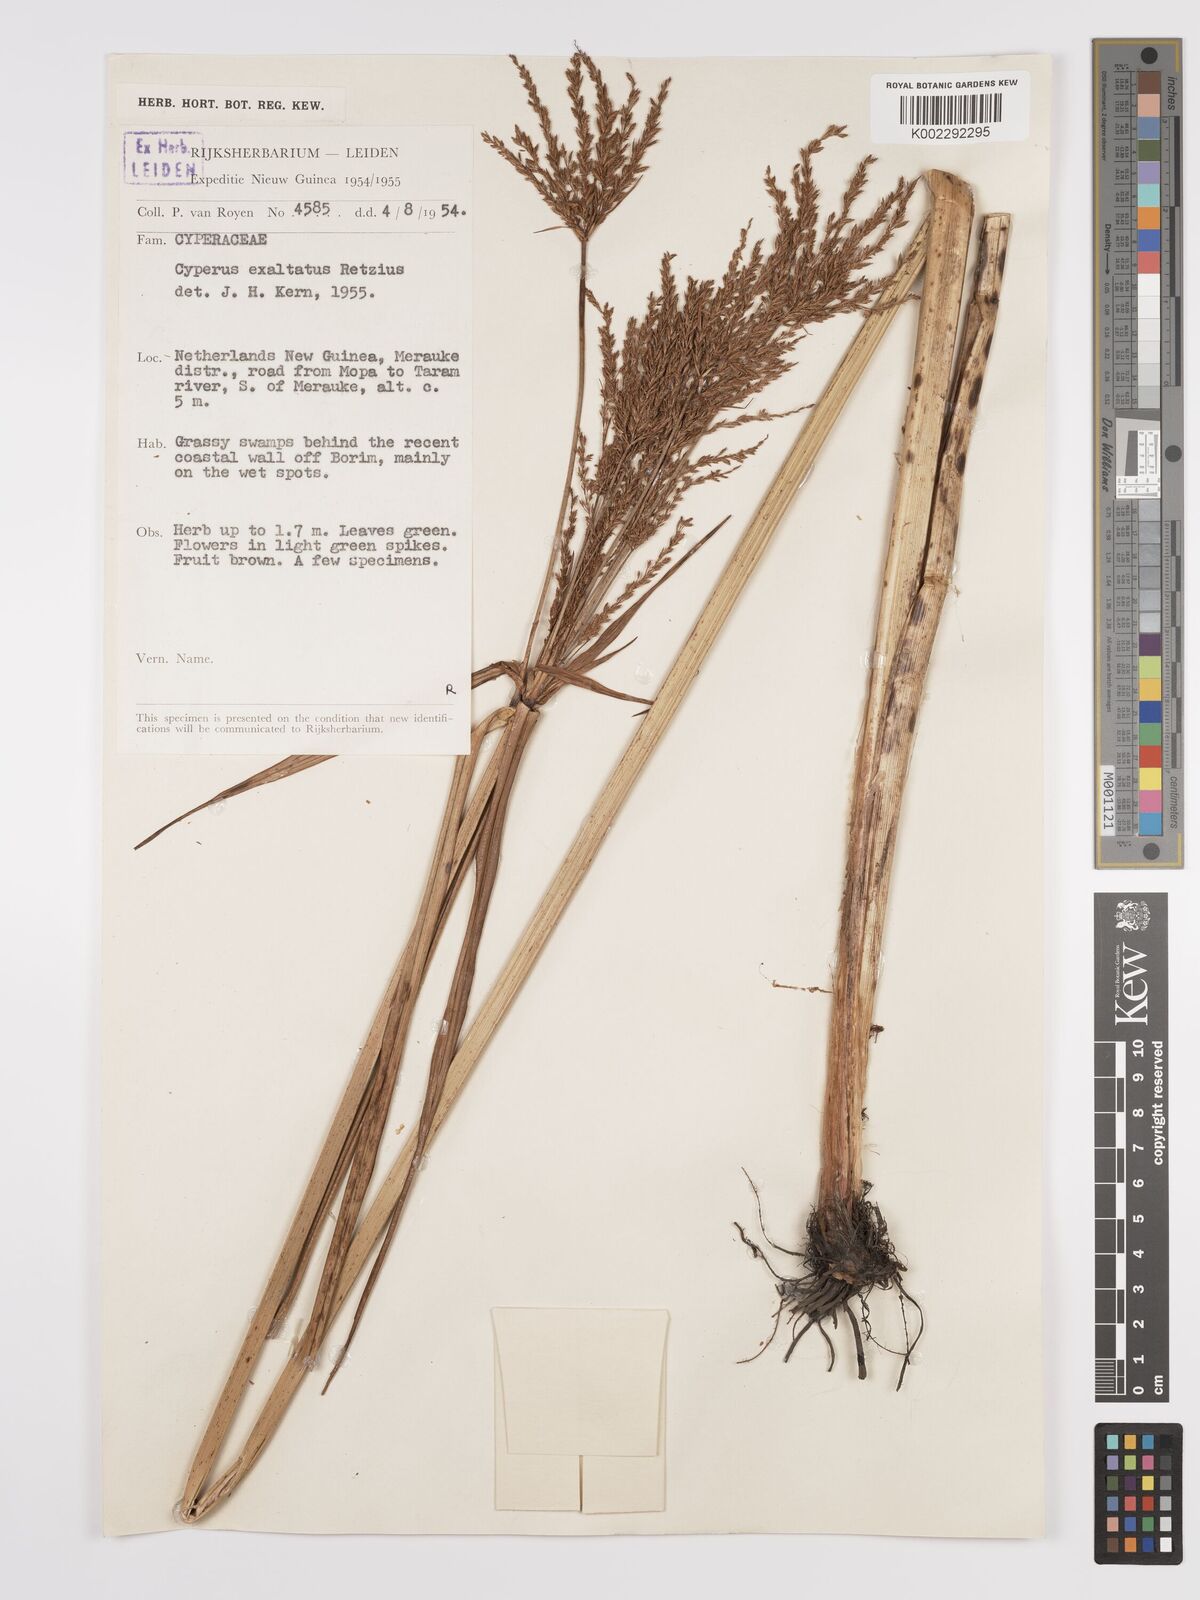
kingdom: Plantae
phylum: Tracheophyta
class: Liliopsida
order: Poales
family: Cyperaceae
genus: Cyperus
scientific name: Cyperus exaltatus
